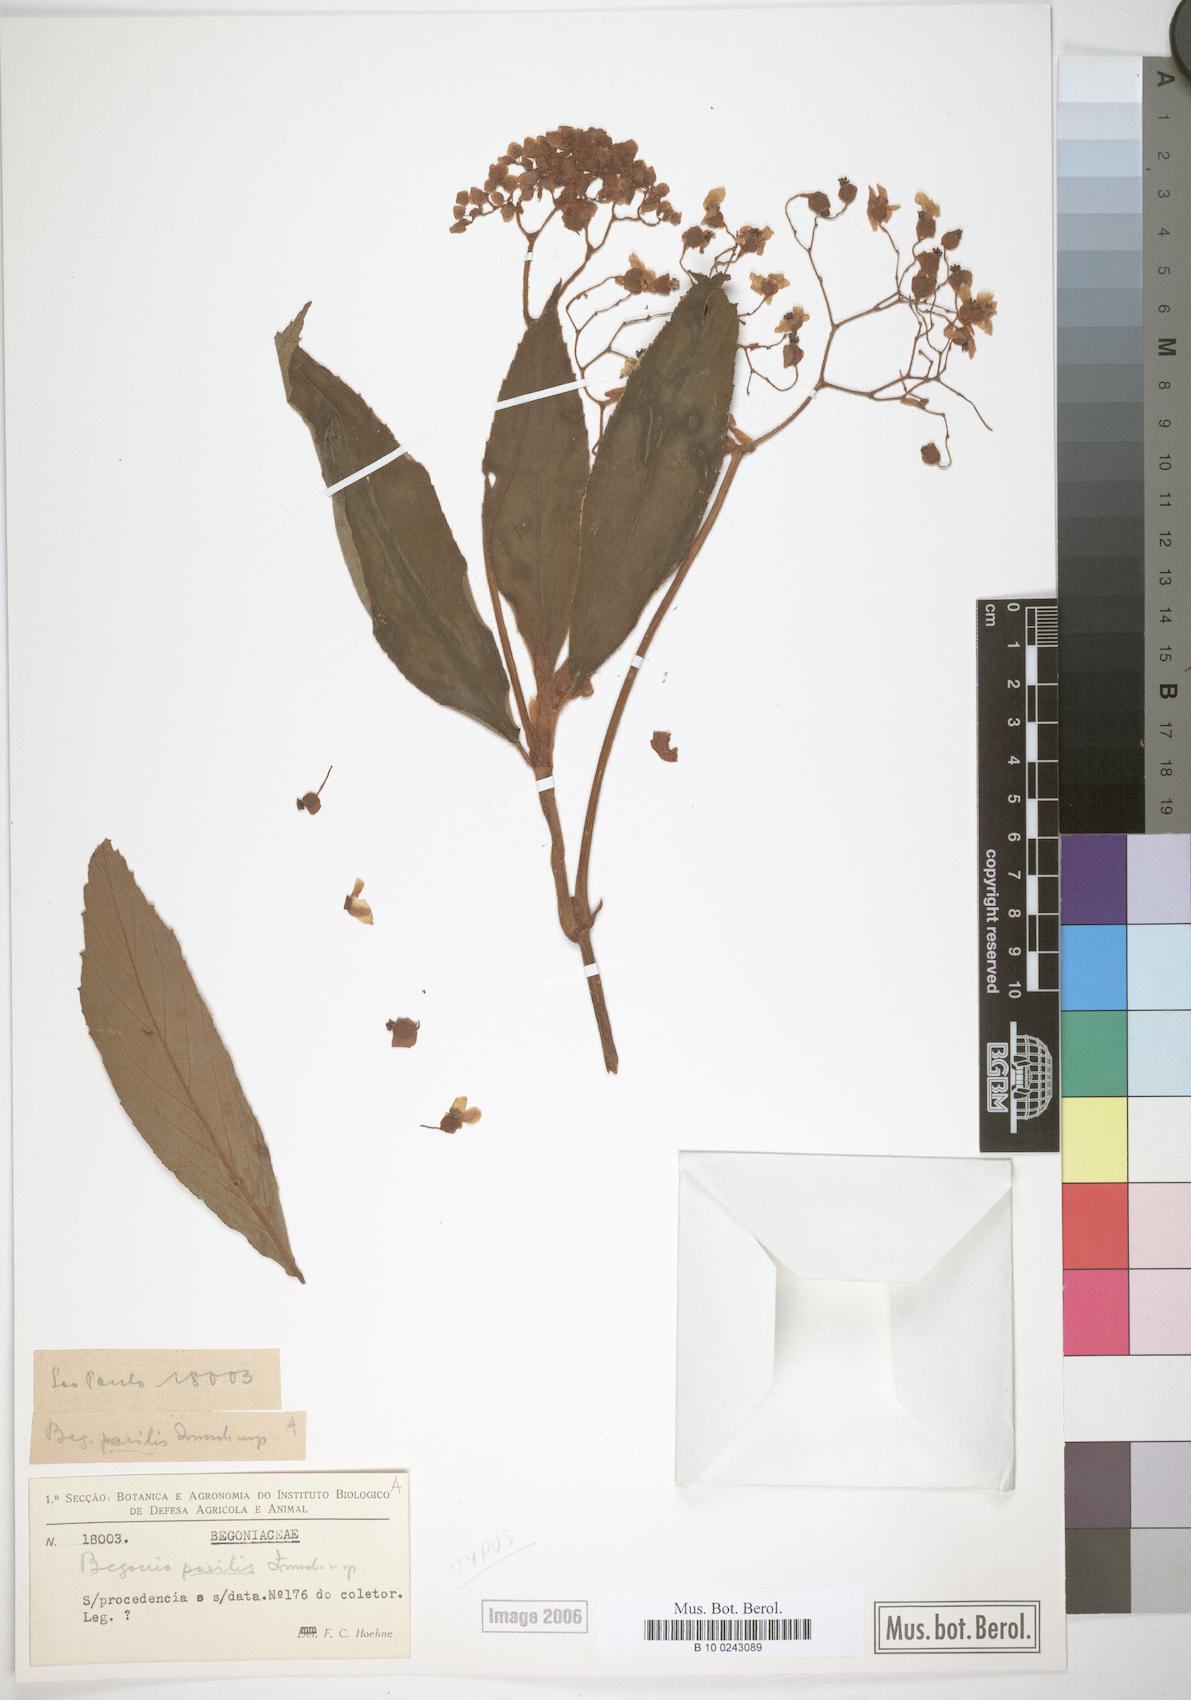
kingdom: Plantae
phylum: Tracheophyta
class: Magnoliopsida
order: Cucurbitales
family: Begoniaceae
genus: Begonia
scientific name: Begonia parilis
